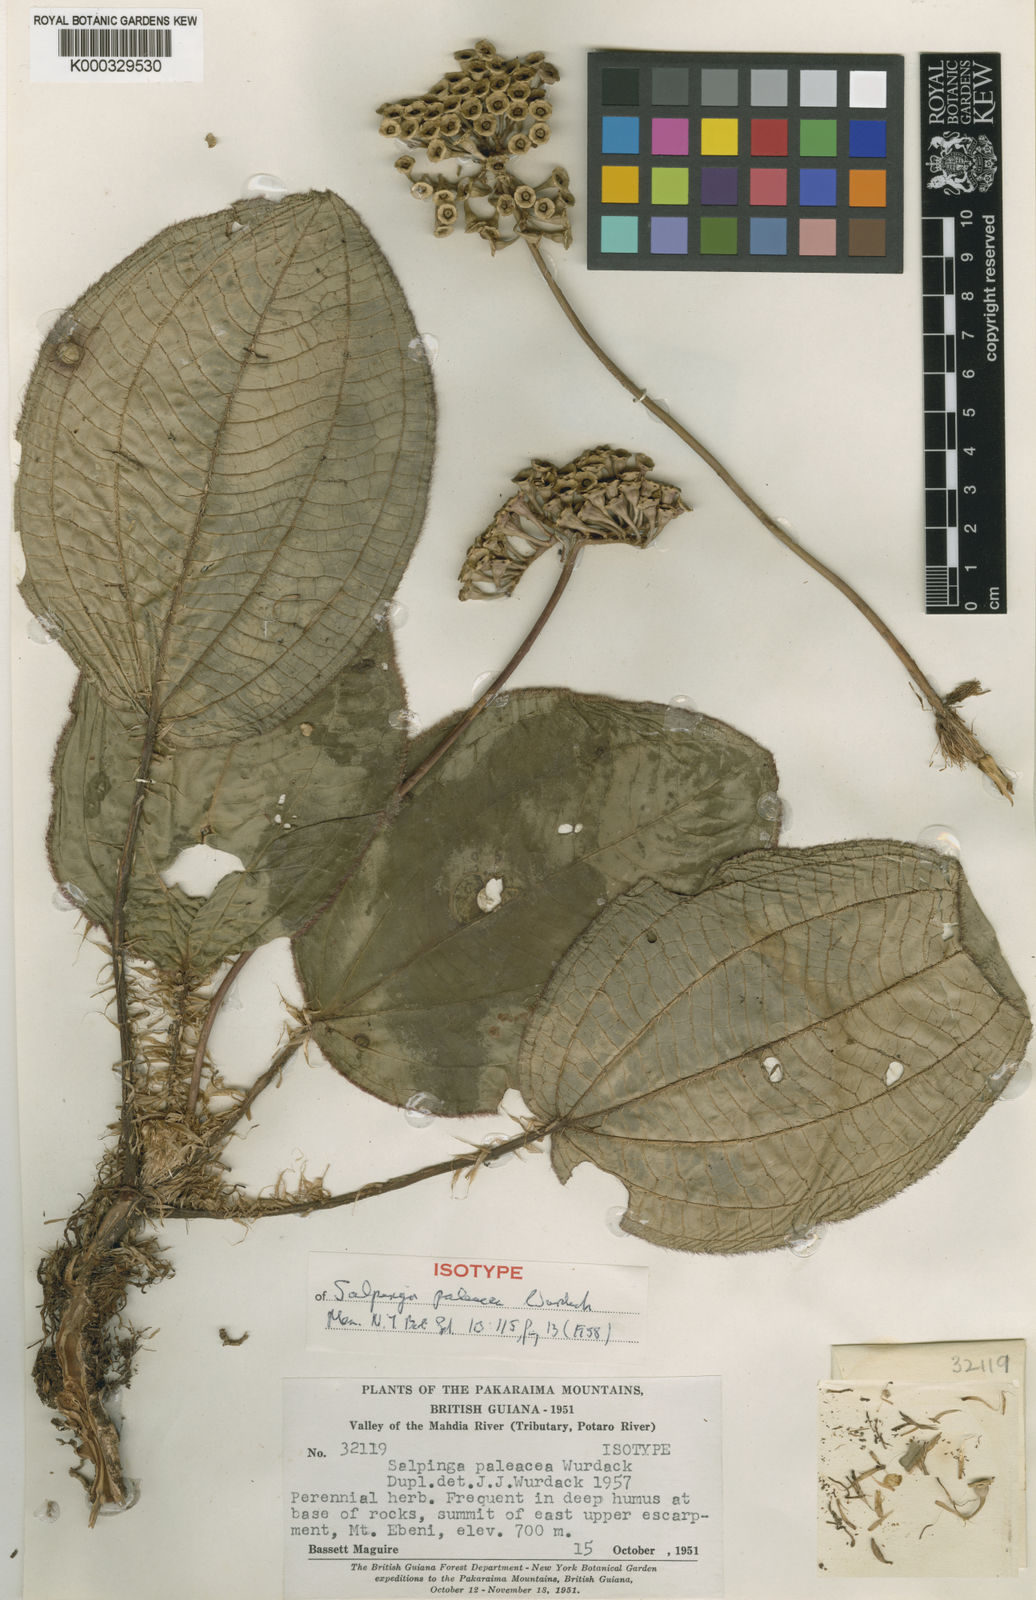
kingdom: Plantae
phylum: Tracheophyta
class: Magnoliopsida
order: Myrtales
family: Melastomataceae
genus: Salpinga
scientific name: Salpinga paleacea
